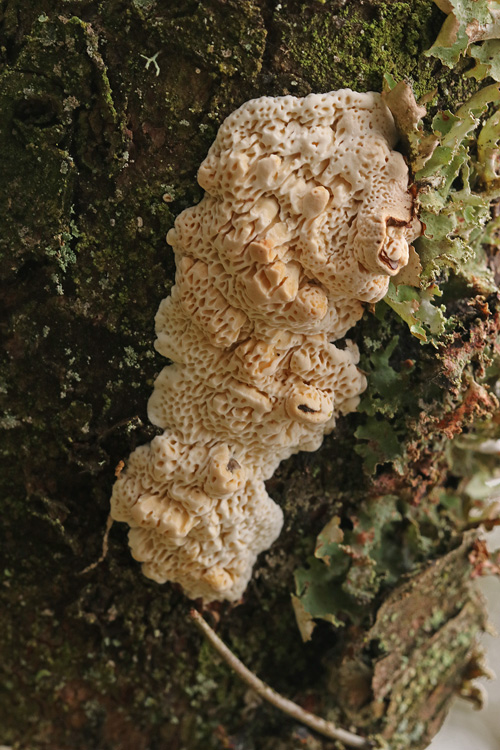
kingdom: Fungi
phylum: Basidiomycota
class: Agaricomycetes
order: Polyporales
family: Fomitopsidaceae
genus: Fomitopsis
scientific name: Fomitopsis
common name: fyrre-skiveporesvamp
